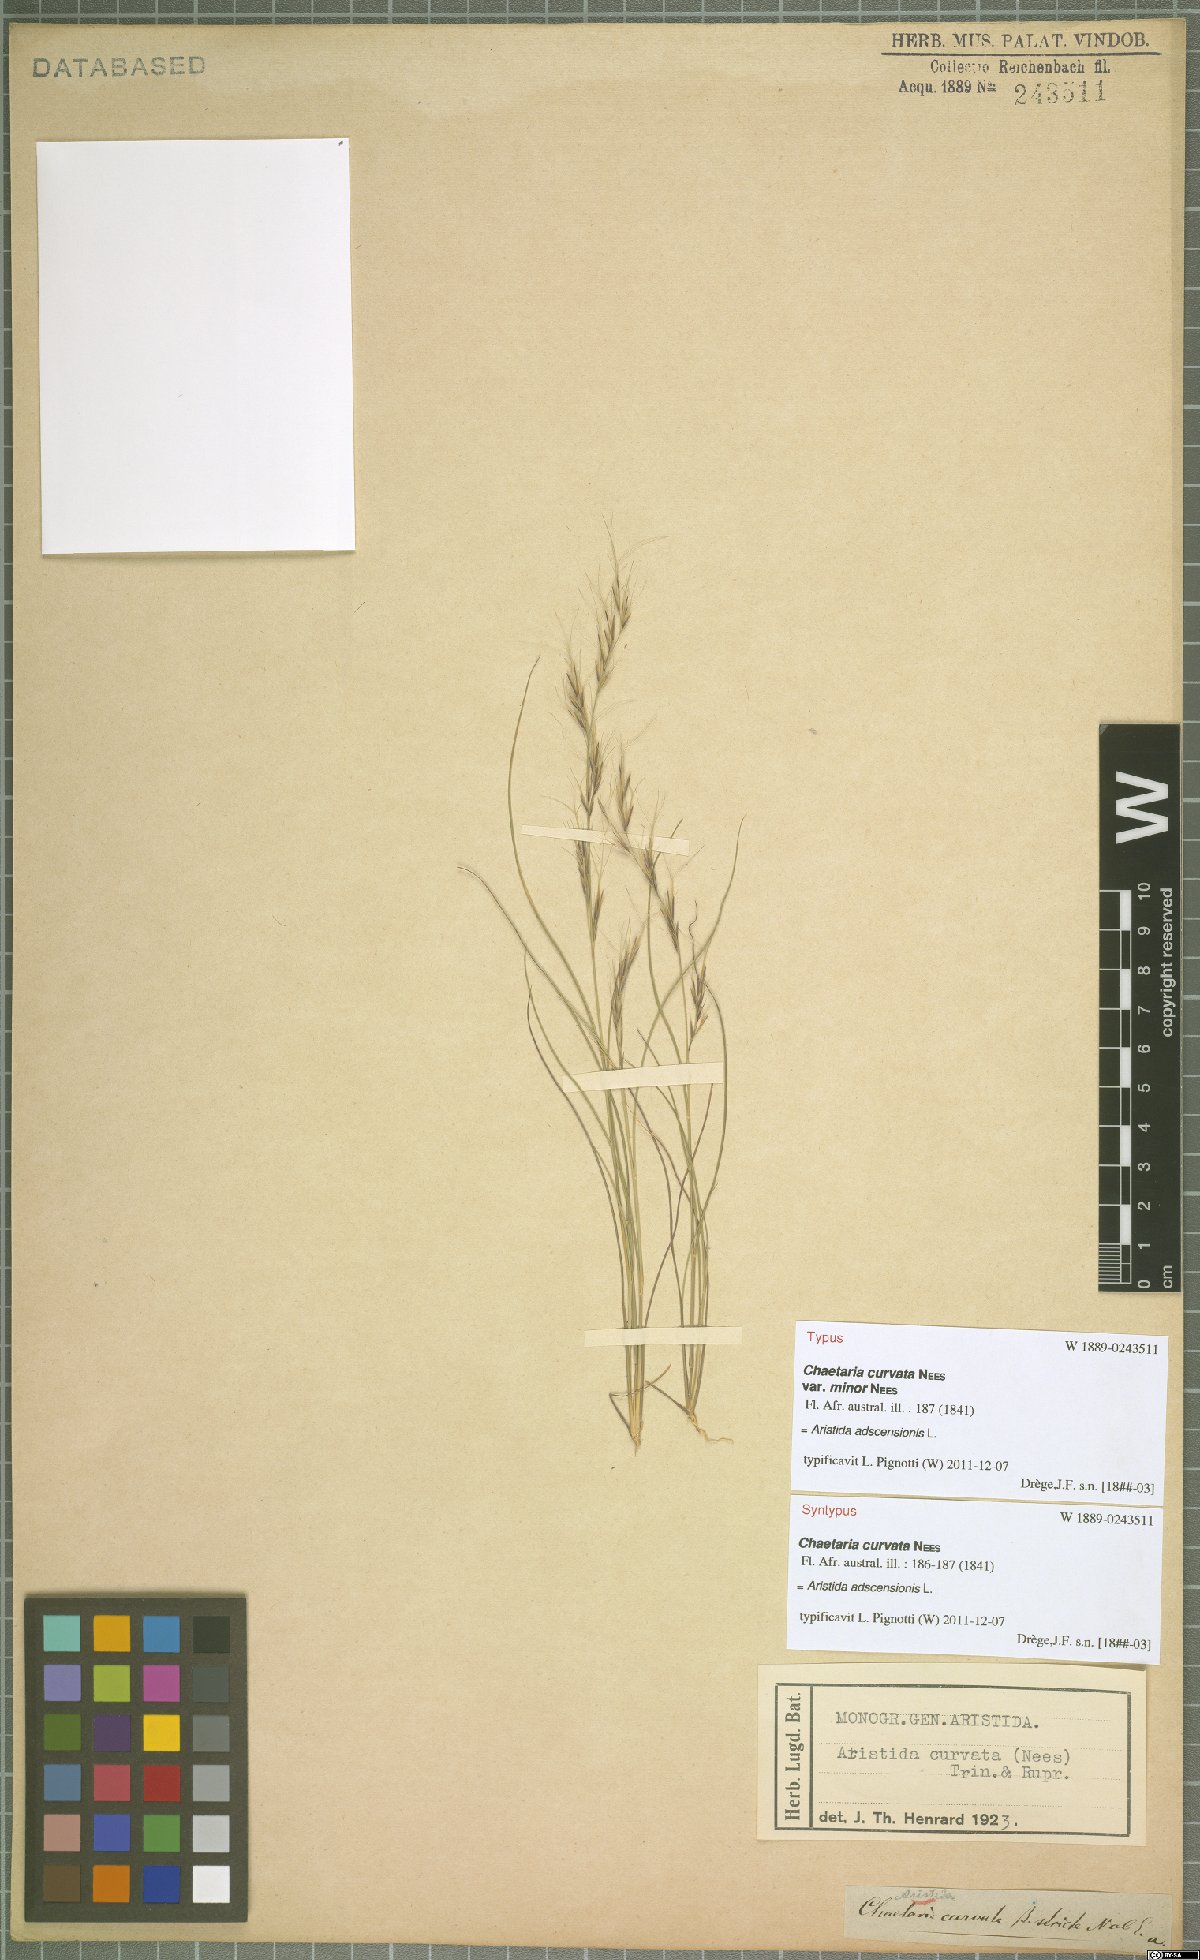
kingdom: Plantae
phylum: Tracheophyta
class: Liliopsida
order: Poales
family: Poaceae
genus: Aristida
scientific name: Aristida adscensionis
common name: Sixweeks threeawn
